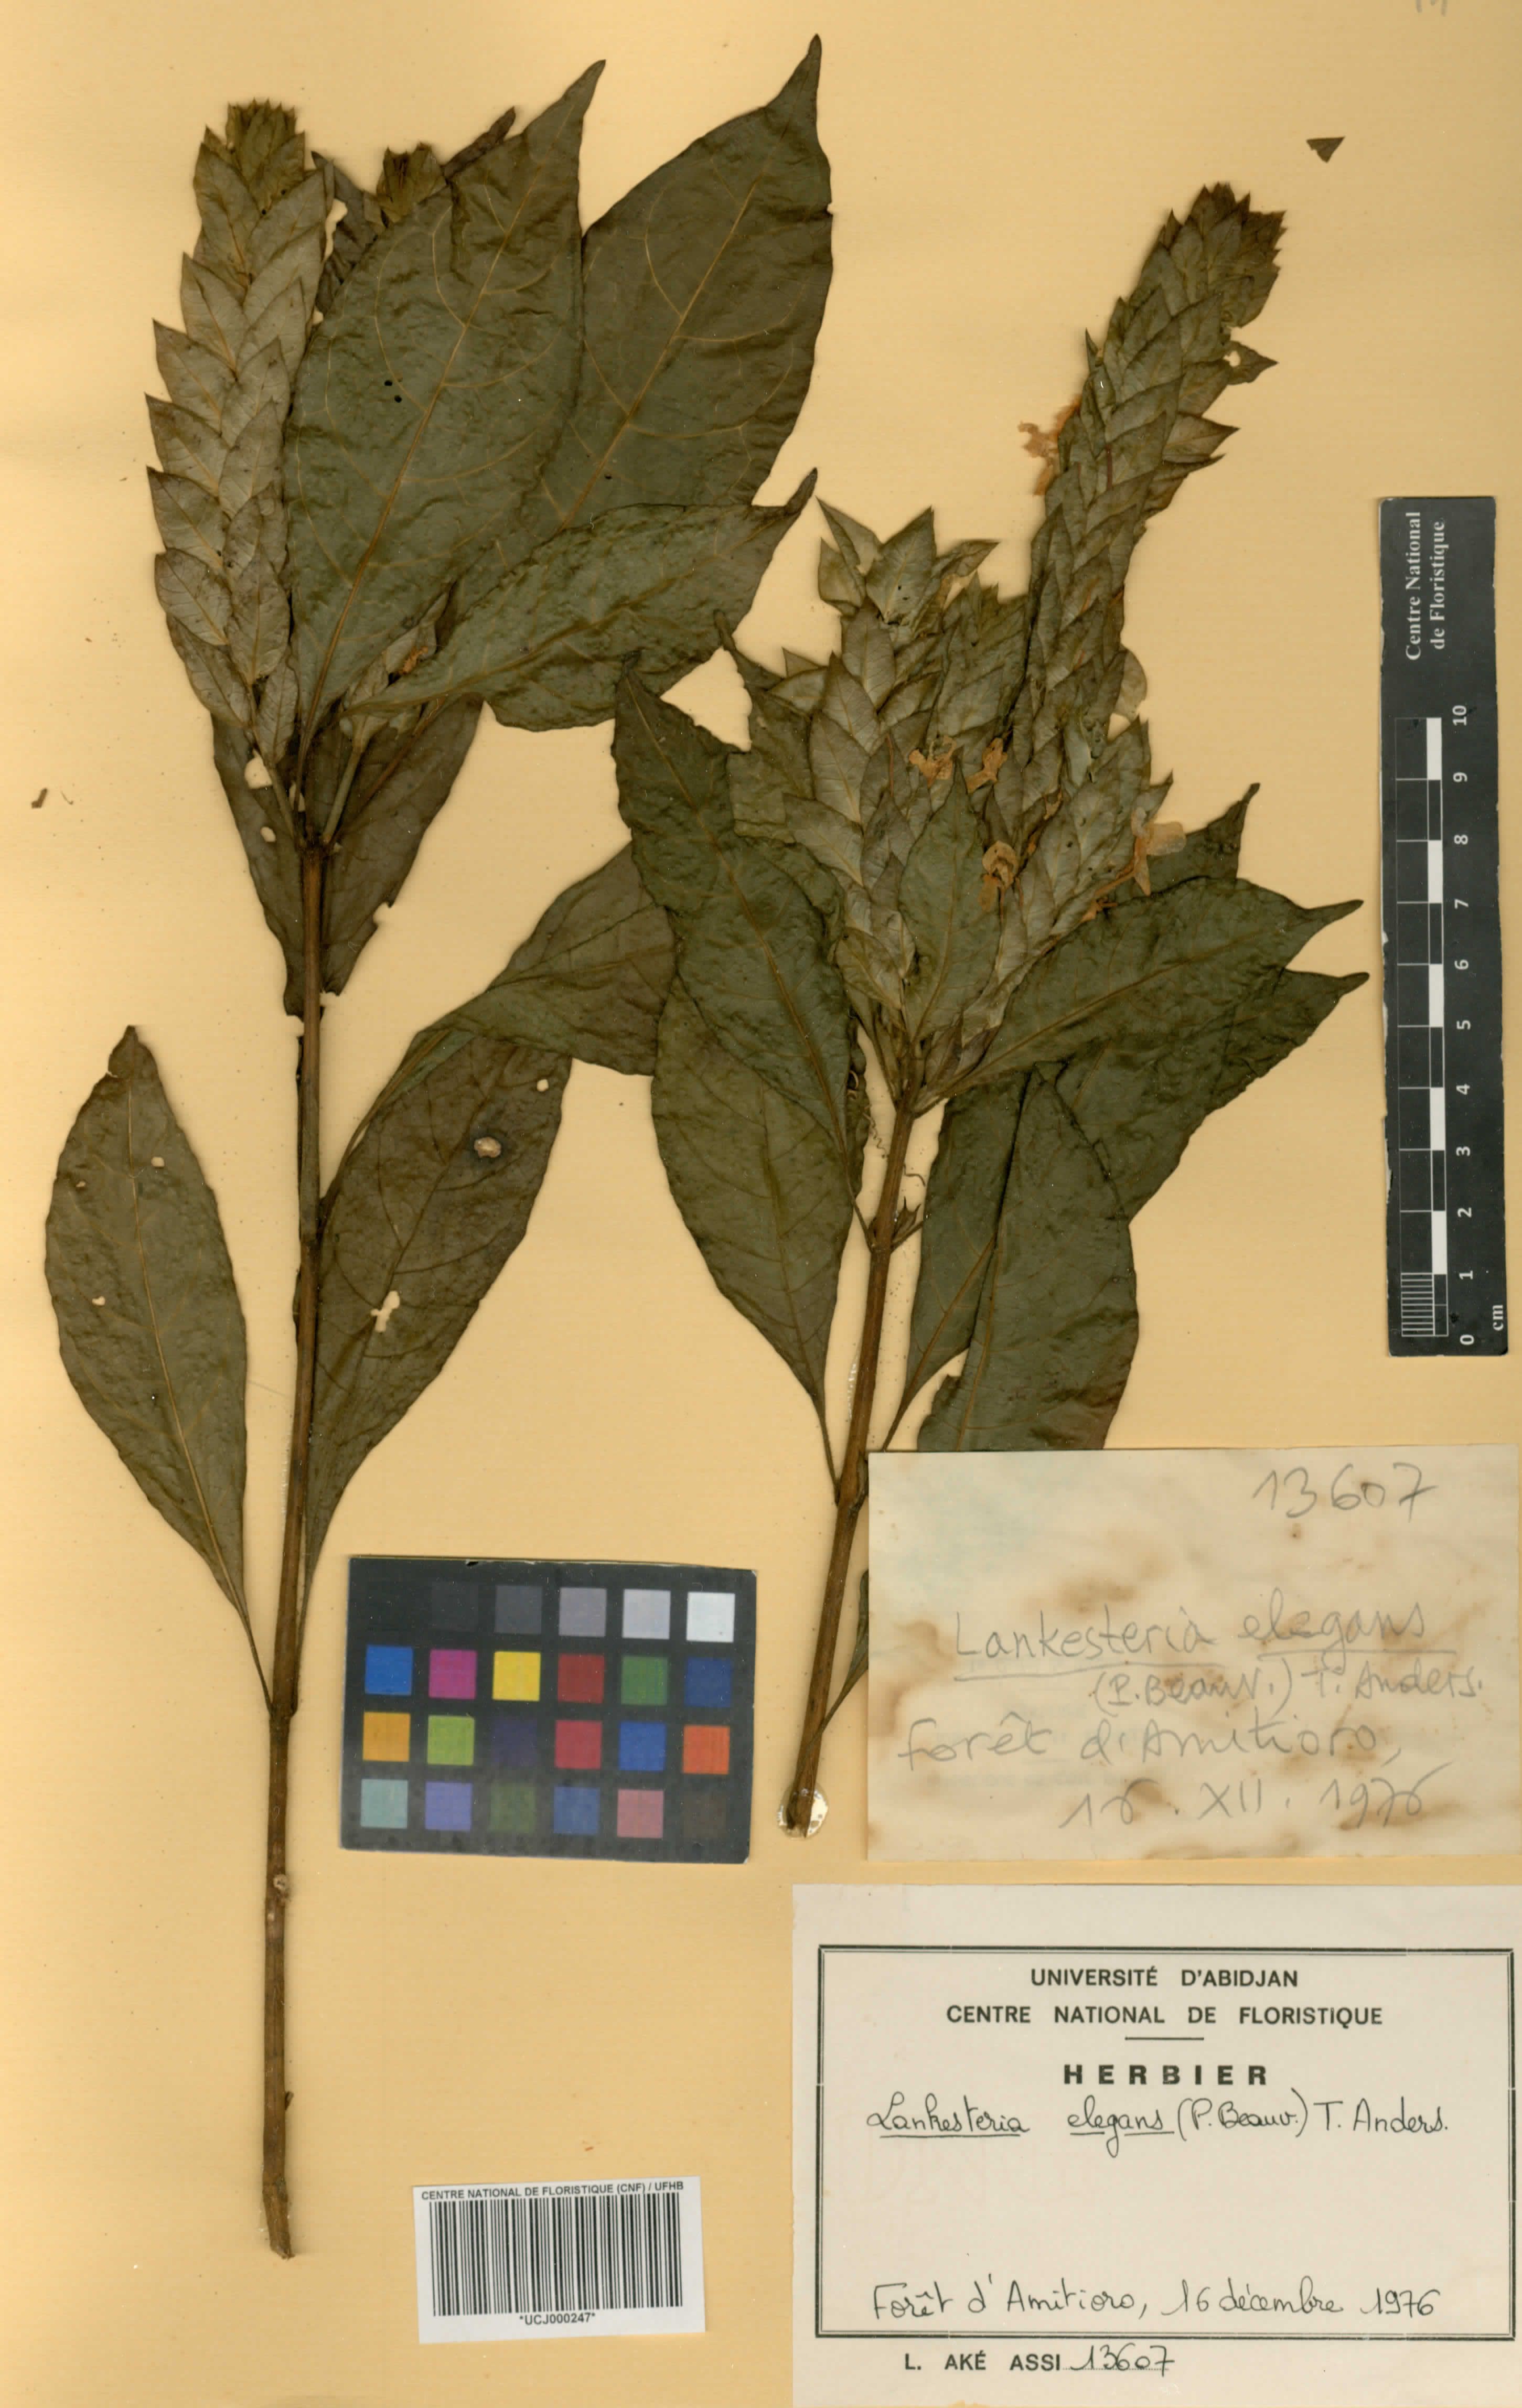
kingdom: Plantae
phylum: Tracheophyta
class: Magnoliopsida
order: Lamiales
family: Acanthaceae
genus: Lankesteria
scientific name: Lankesteria elegans
